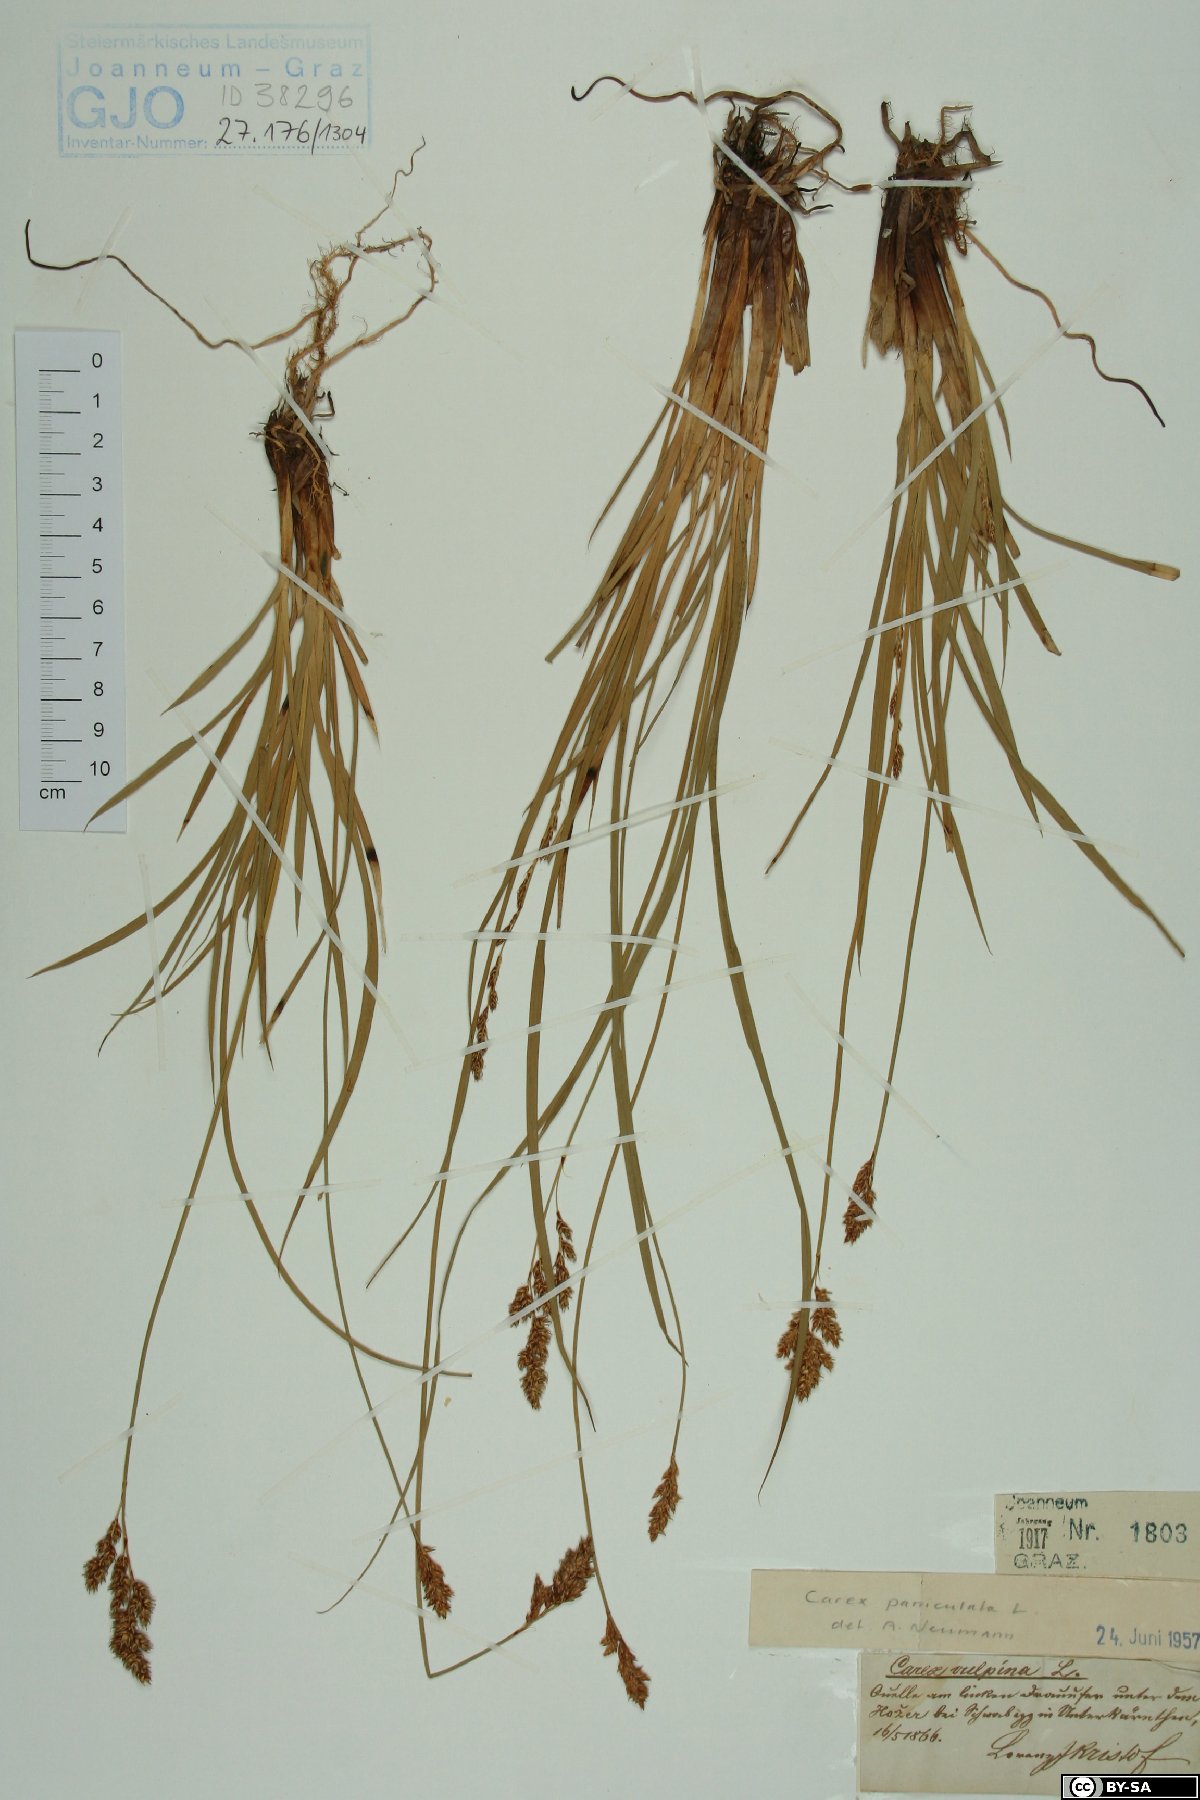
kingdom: Plantae
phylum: Tracheophyta
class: Liliopsida
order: Poales
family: Cyperaceae
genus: Carex
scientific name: Carex paniculata
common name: Greater tussock-sedge
